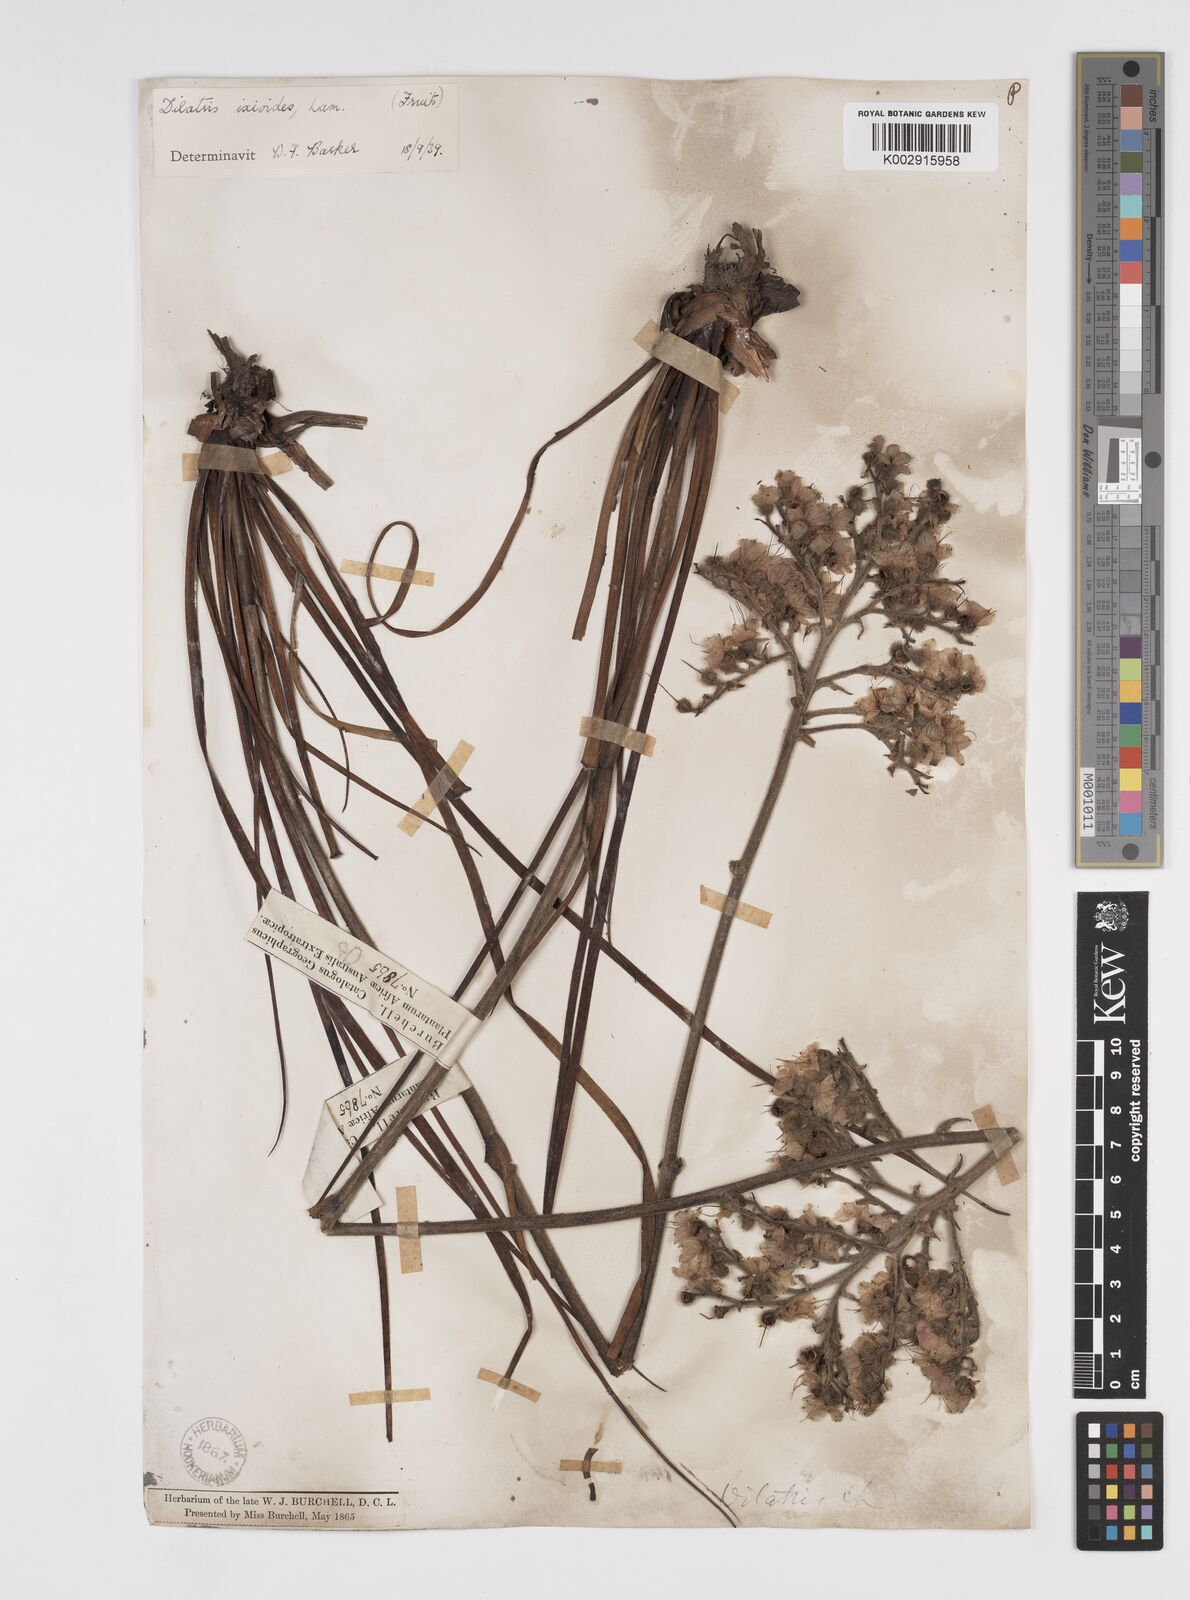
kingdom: Plantae
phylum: Tracheophyta
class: Liliopsida
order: Commelinales
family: Haemodoraceae
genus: Dilatris
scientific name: Dilatris ixioides
